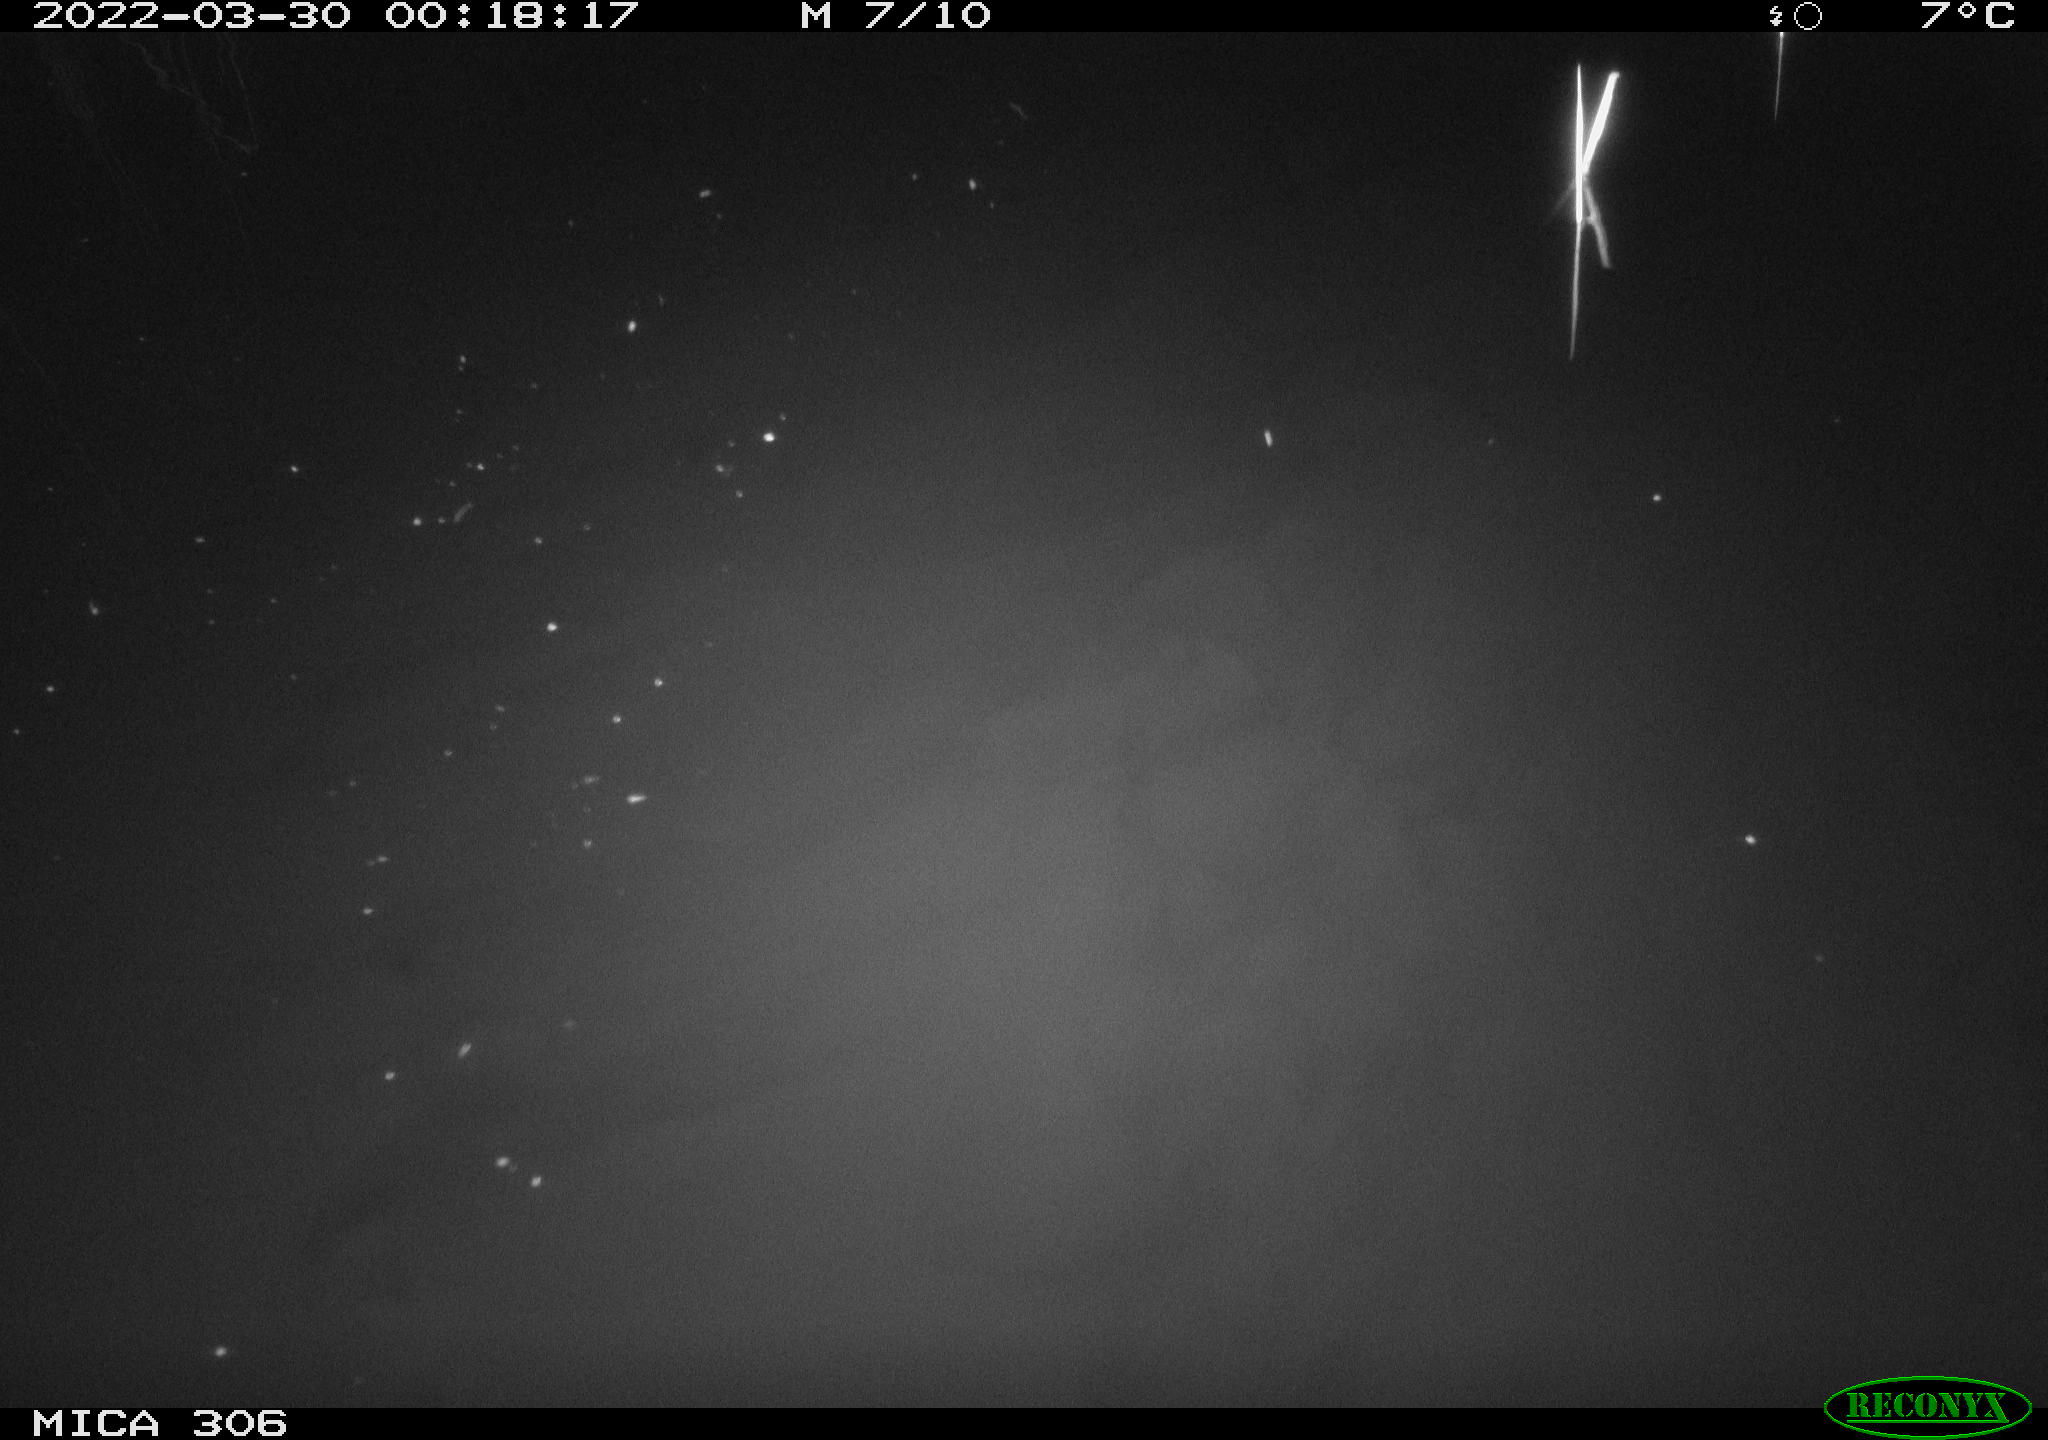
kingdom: Animalia
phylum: Chordata
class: Aves
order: Anseriformes
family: Anatidae
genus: Anas
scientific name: Anas platyrhynchos
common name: Mallard
